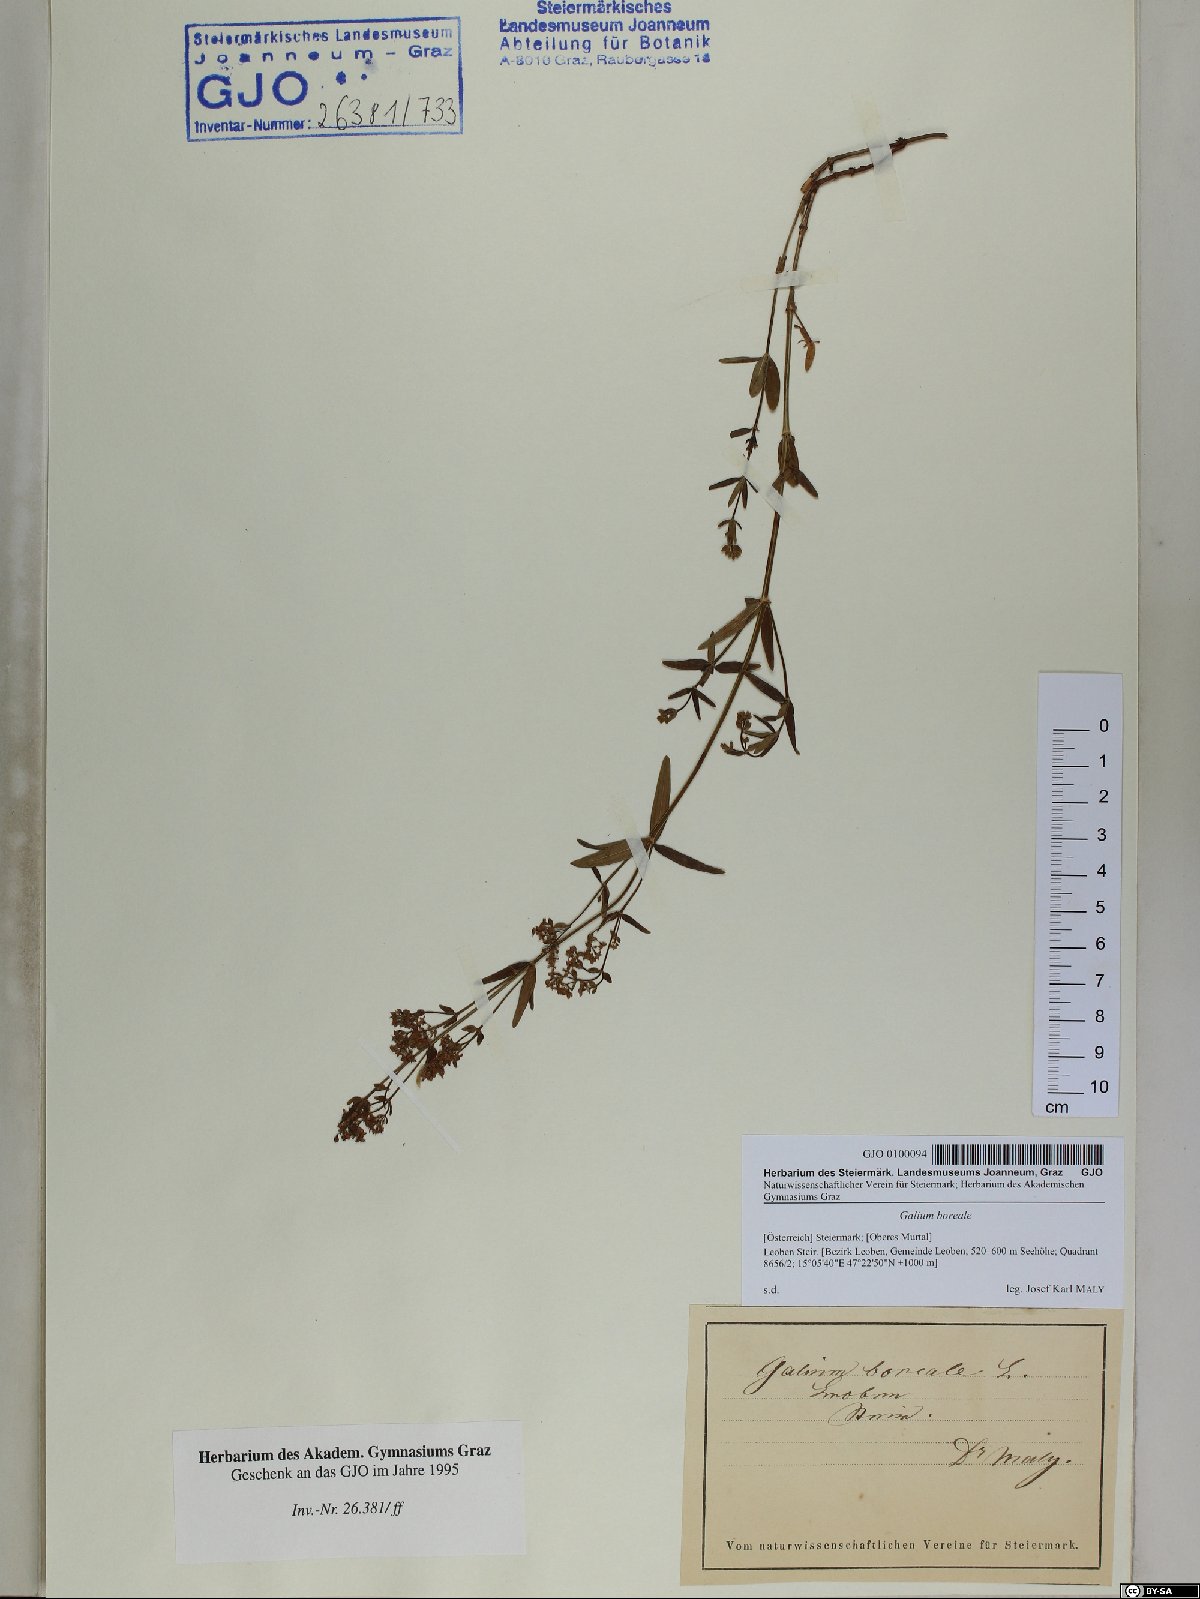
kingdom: Plantae
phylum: Tracheophyta
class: Magnoliopsida
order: Gentianales
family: Rubiaceae
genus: Galium
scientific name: Galium boreale
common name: Northern bedstraw
